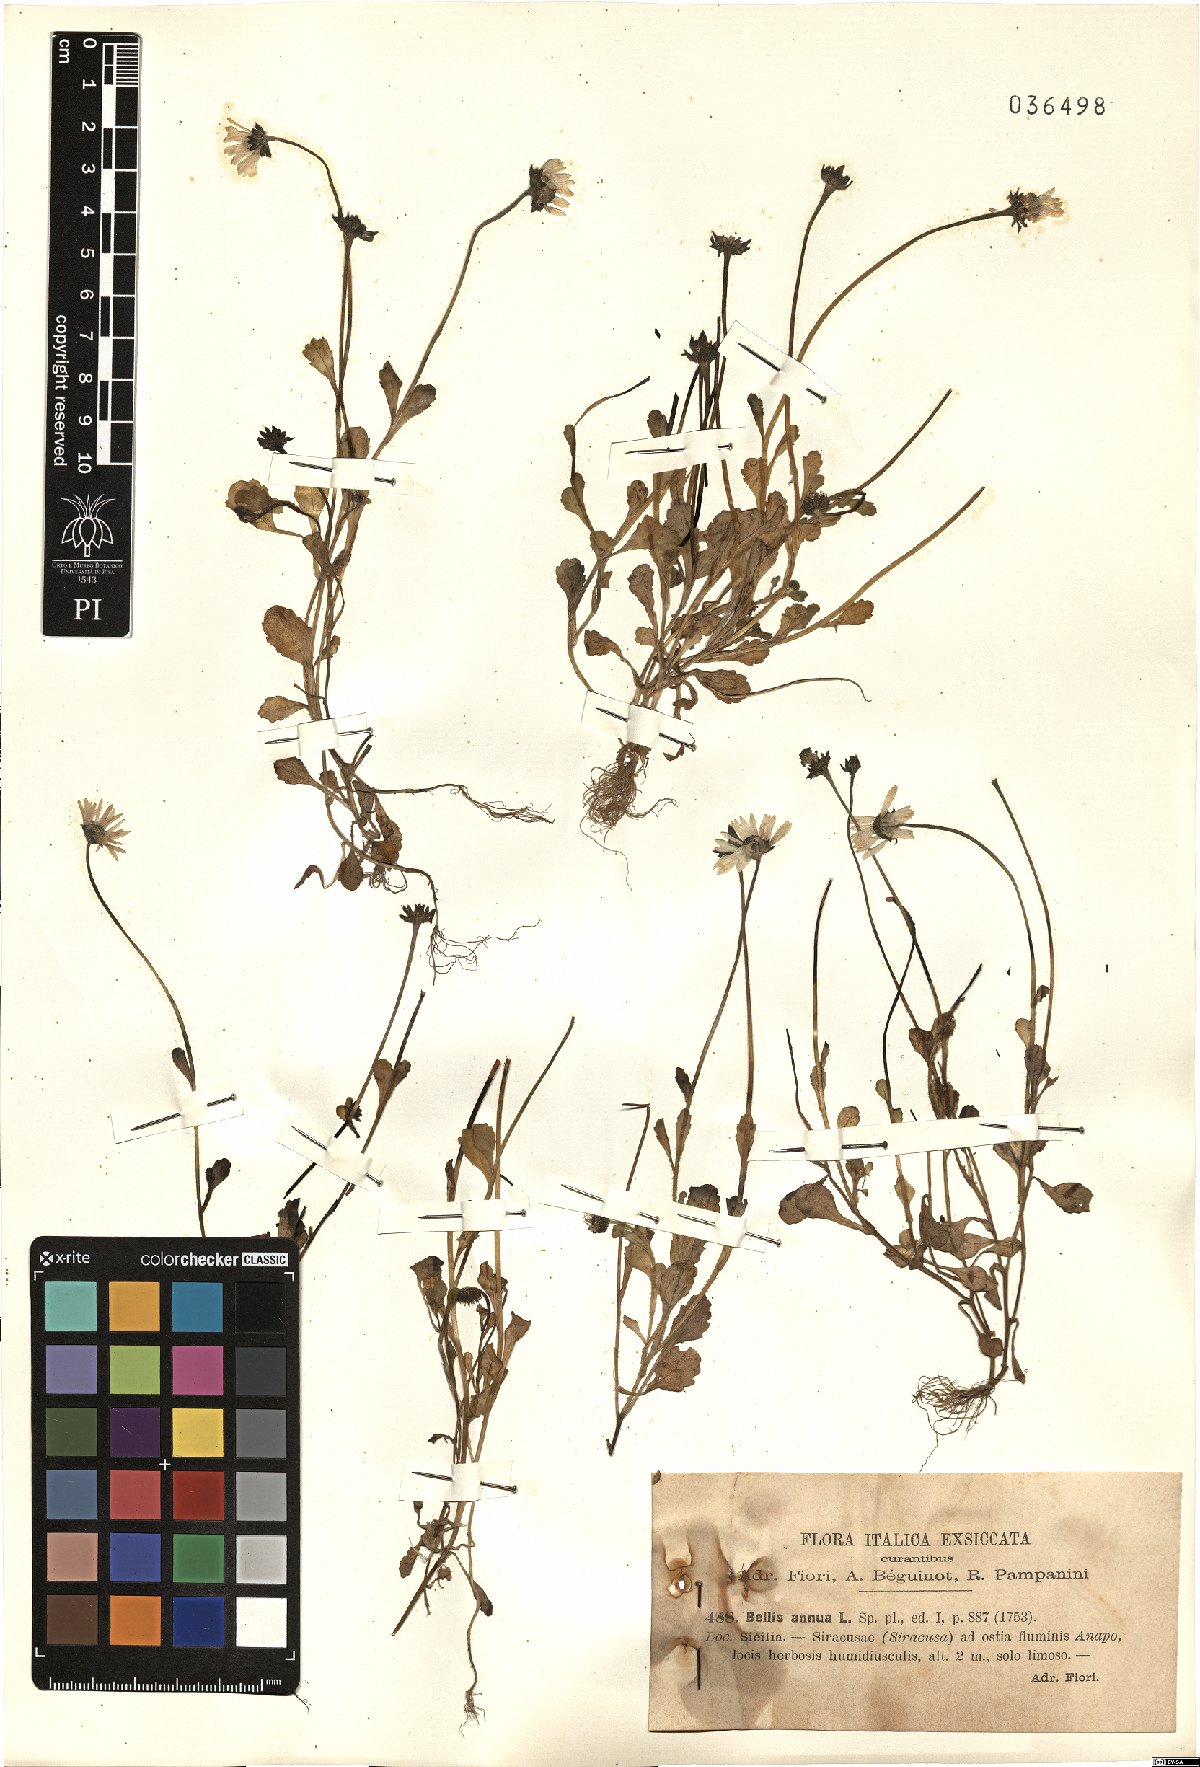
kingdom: Plantae
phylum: Tracheophyta
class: Magnoliopsida
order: Asterales
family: Asteraceae
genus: Bellis
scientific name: Bellis annua
